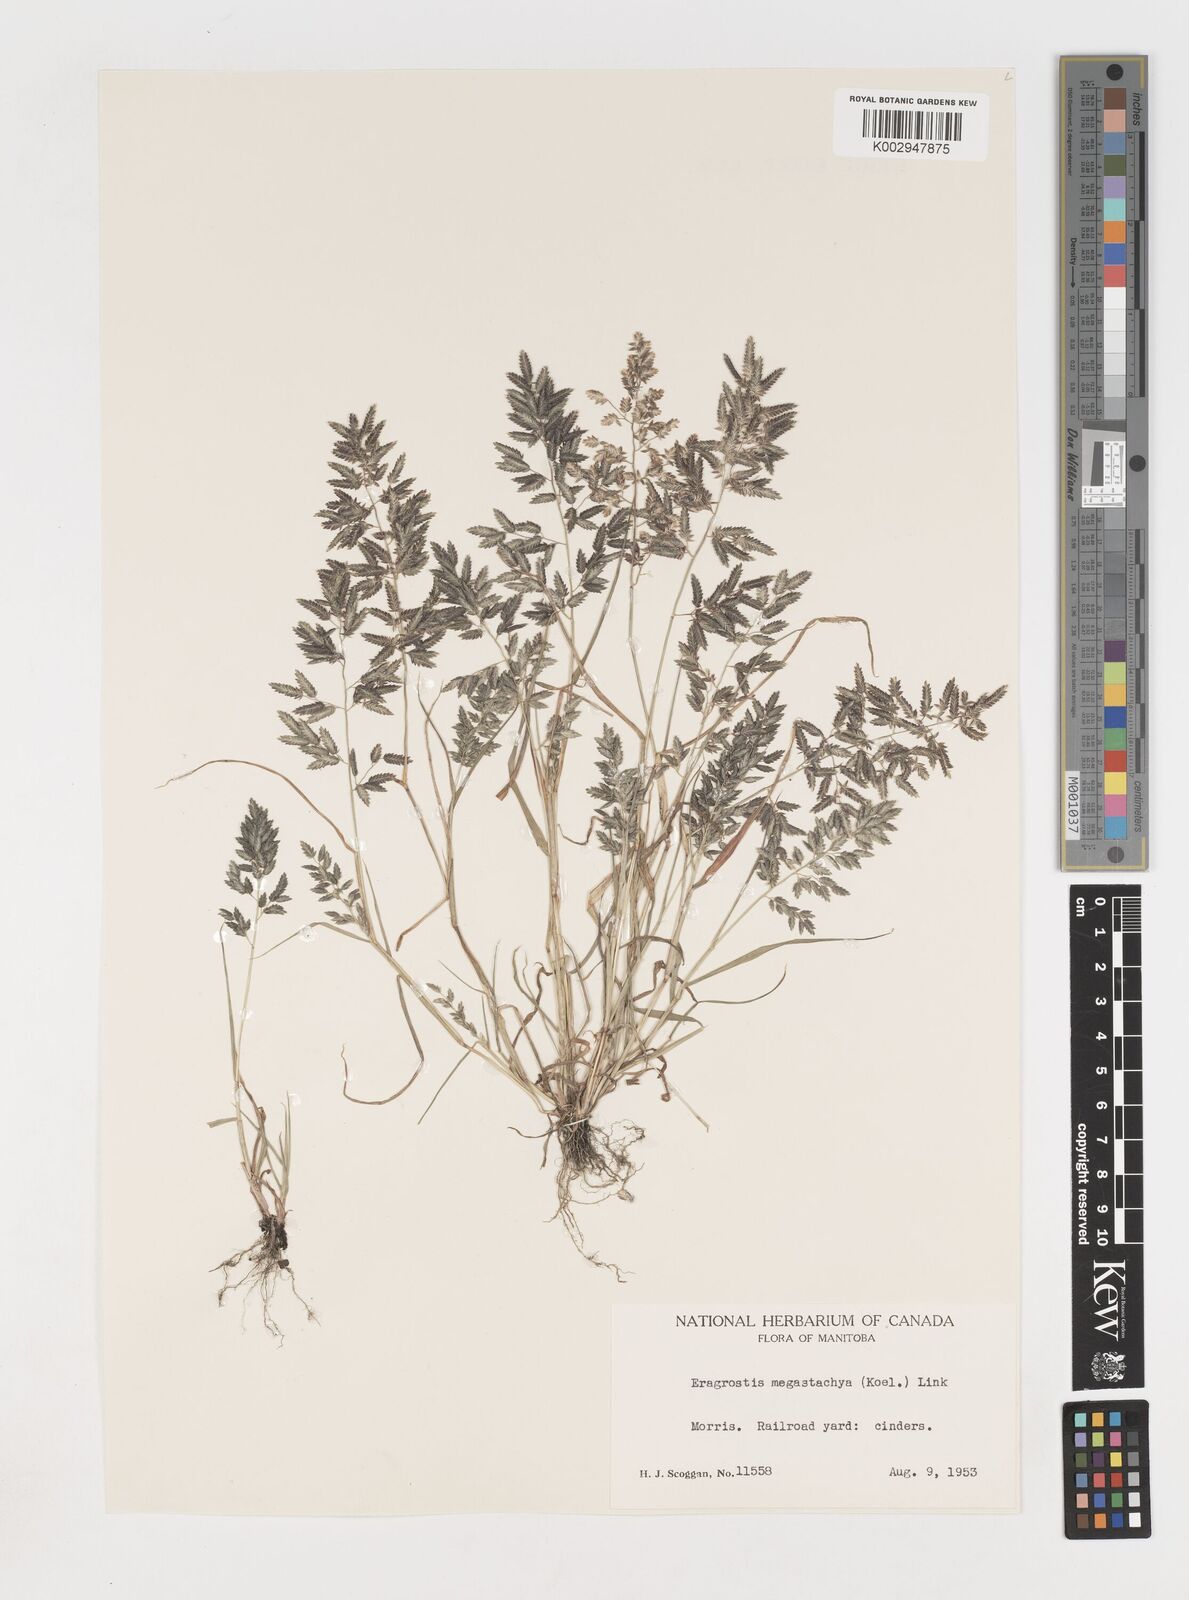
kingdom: Plantae
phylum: Tracheophyta
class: Liliopsida
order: Poales
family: Poaceae
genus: Eragrostis
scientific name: Eragrostis cilianensis
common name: Stinkgrass
